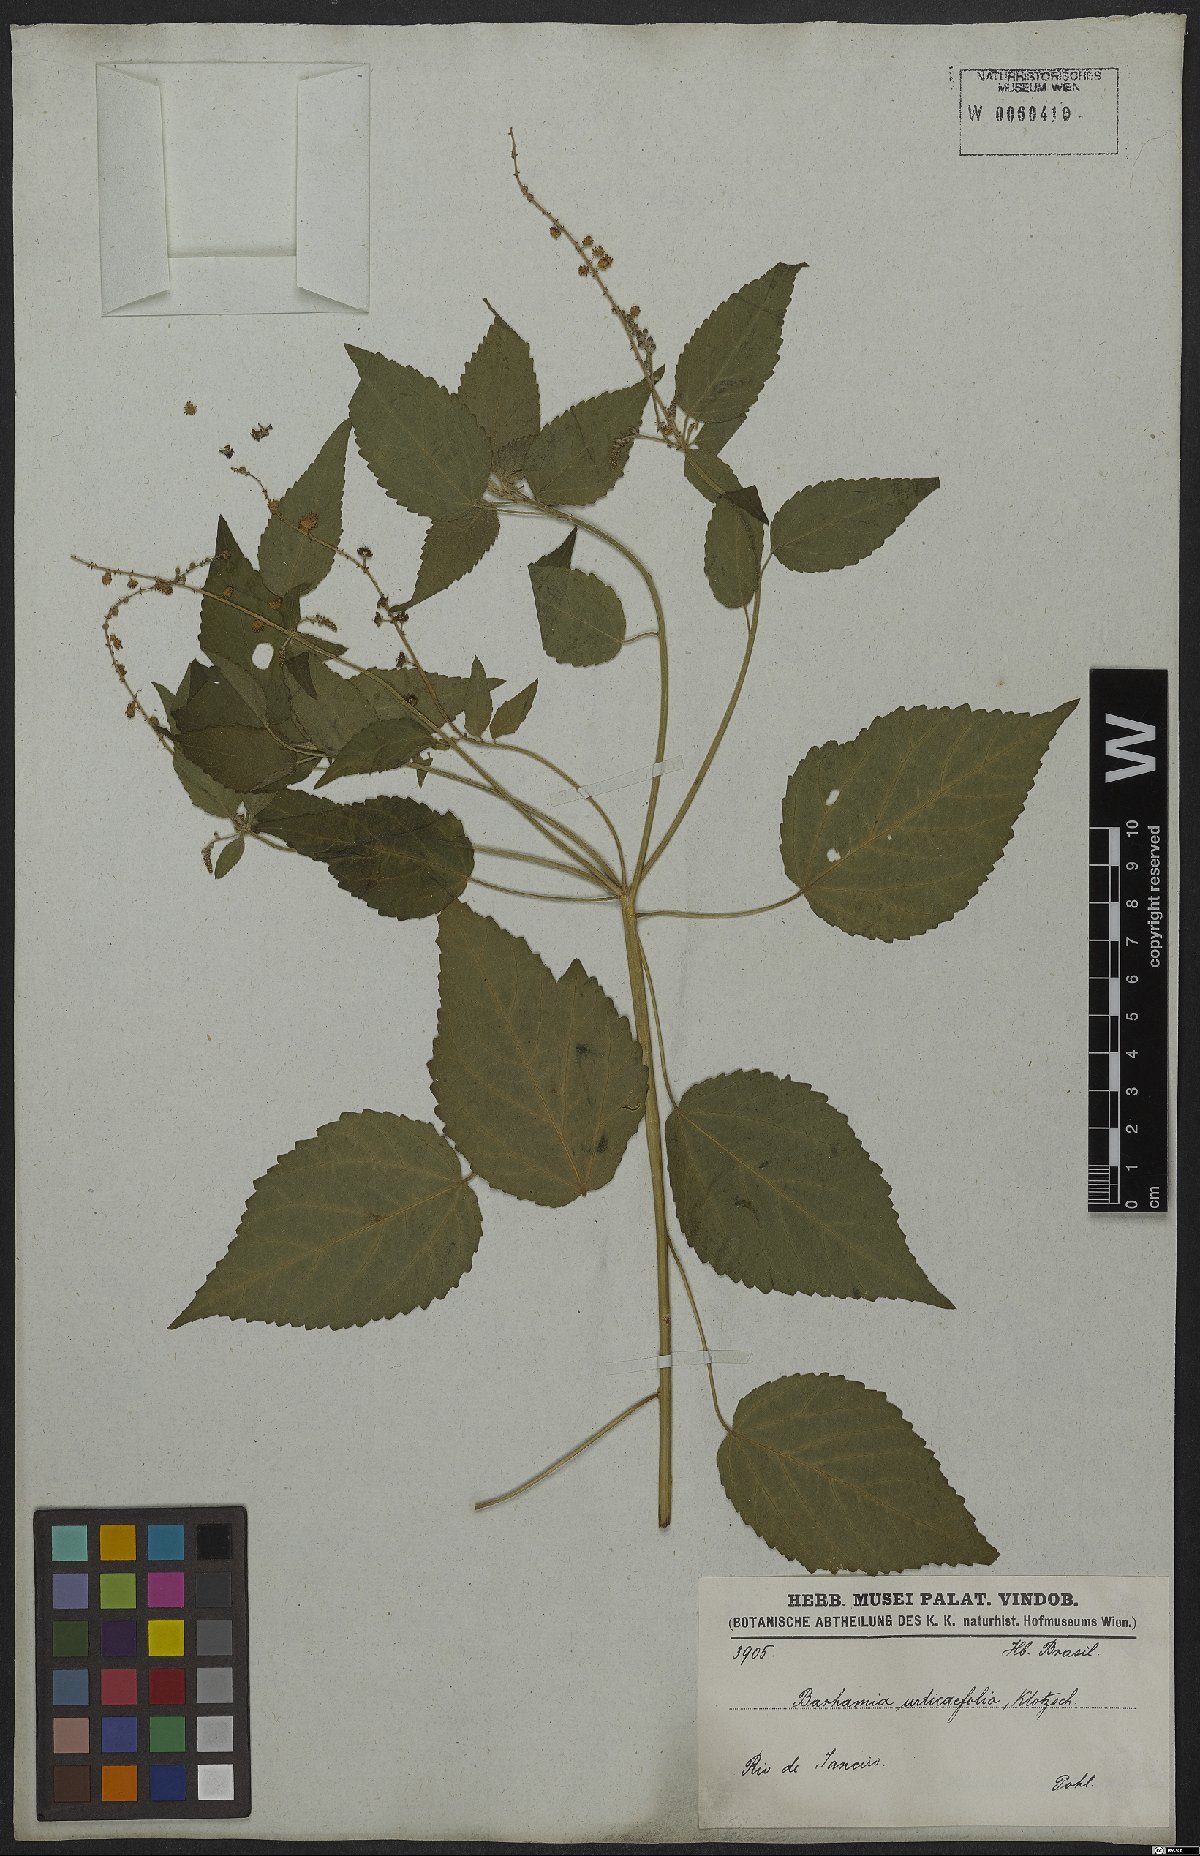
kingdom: Plantae
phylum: Tracheophyta
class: Magnoliopsida
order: Malpighiales
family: Euphorbiaceae
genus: Croton
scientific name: Croton urticifolius
